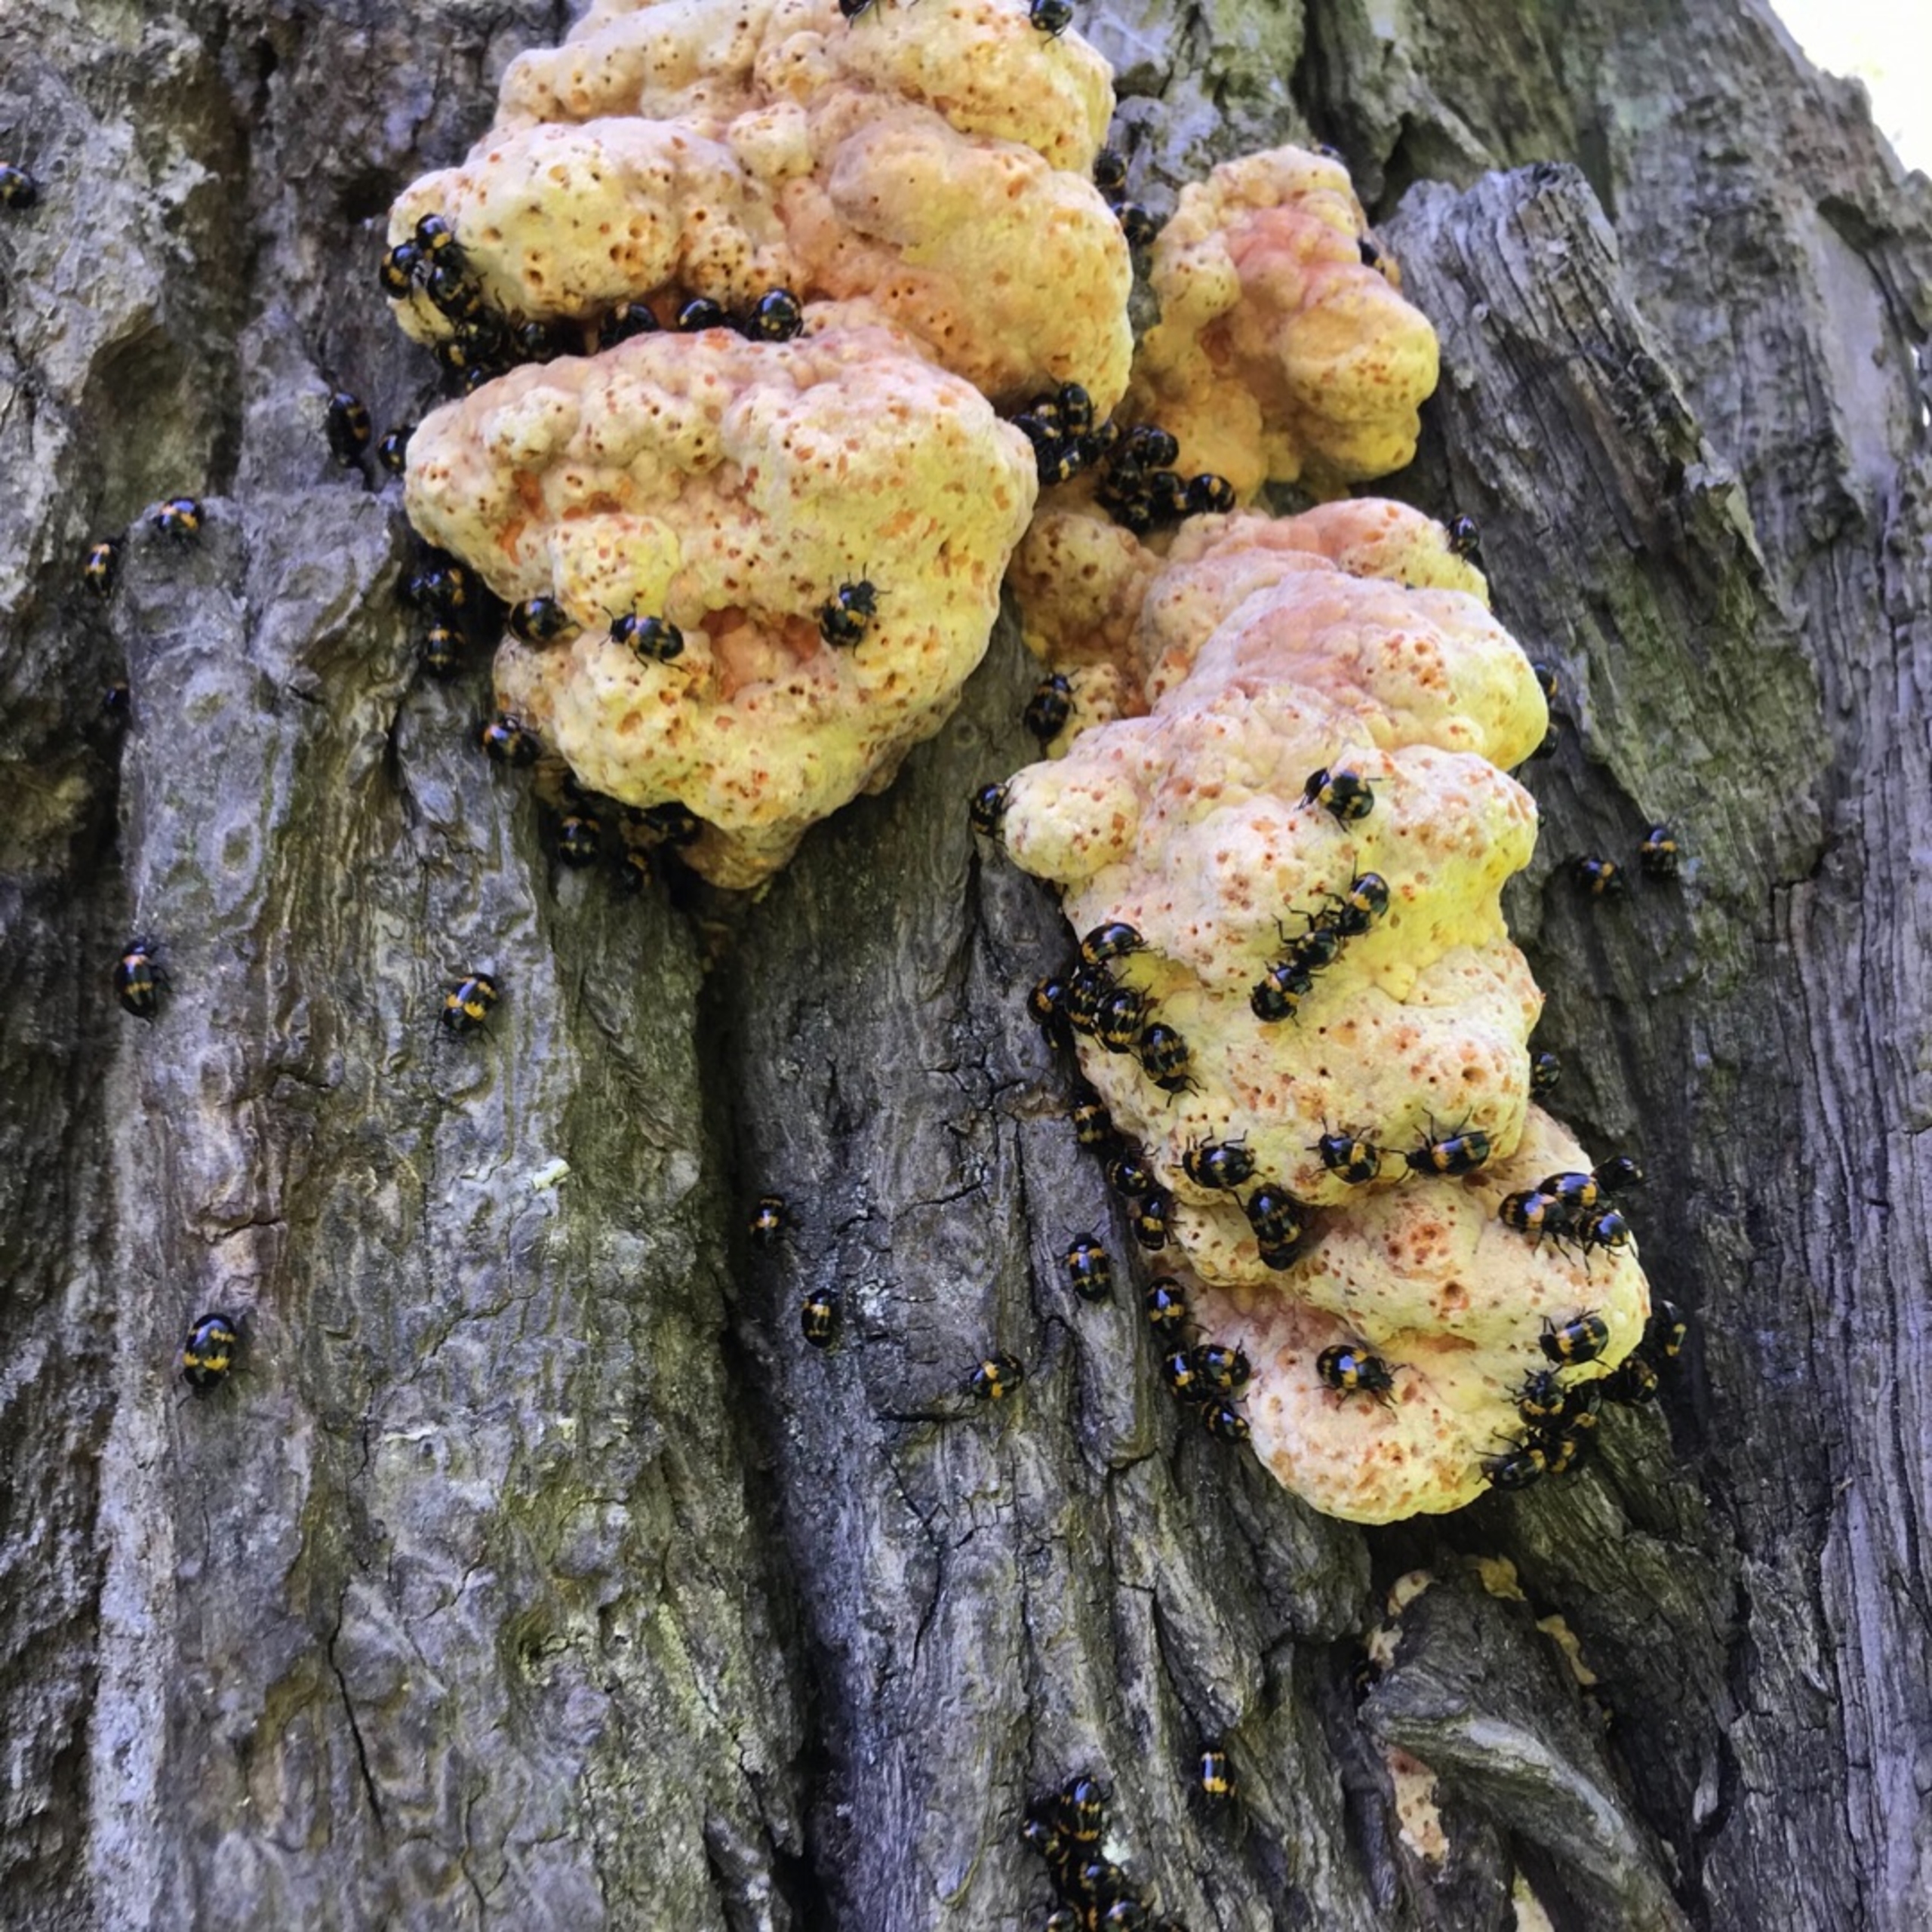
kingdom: Animalia
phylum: Arthropoda
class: Insecta
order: Coleoptera
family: Tenebrionidae
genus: Diaperis
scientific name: Diaperis boleti
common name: Tigerskyggebille
